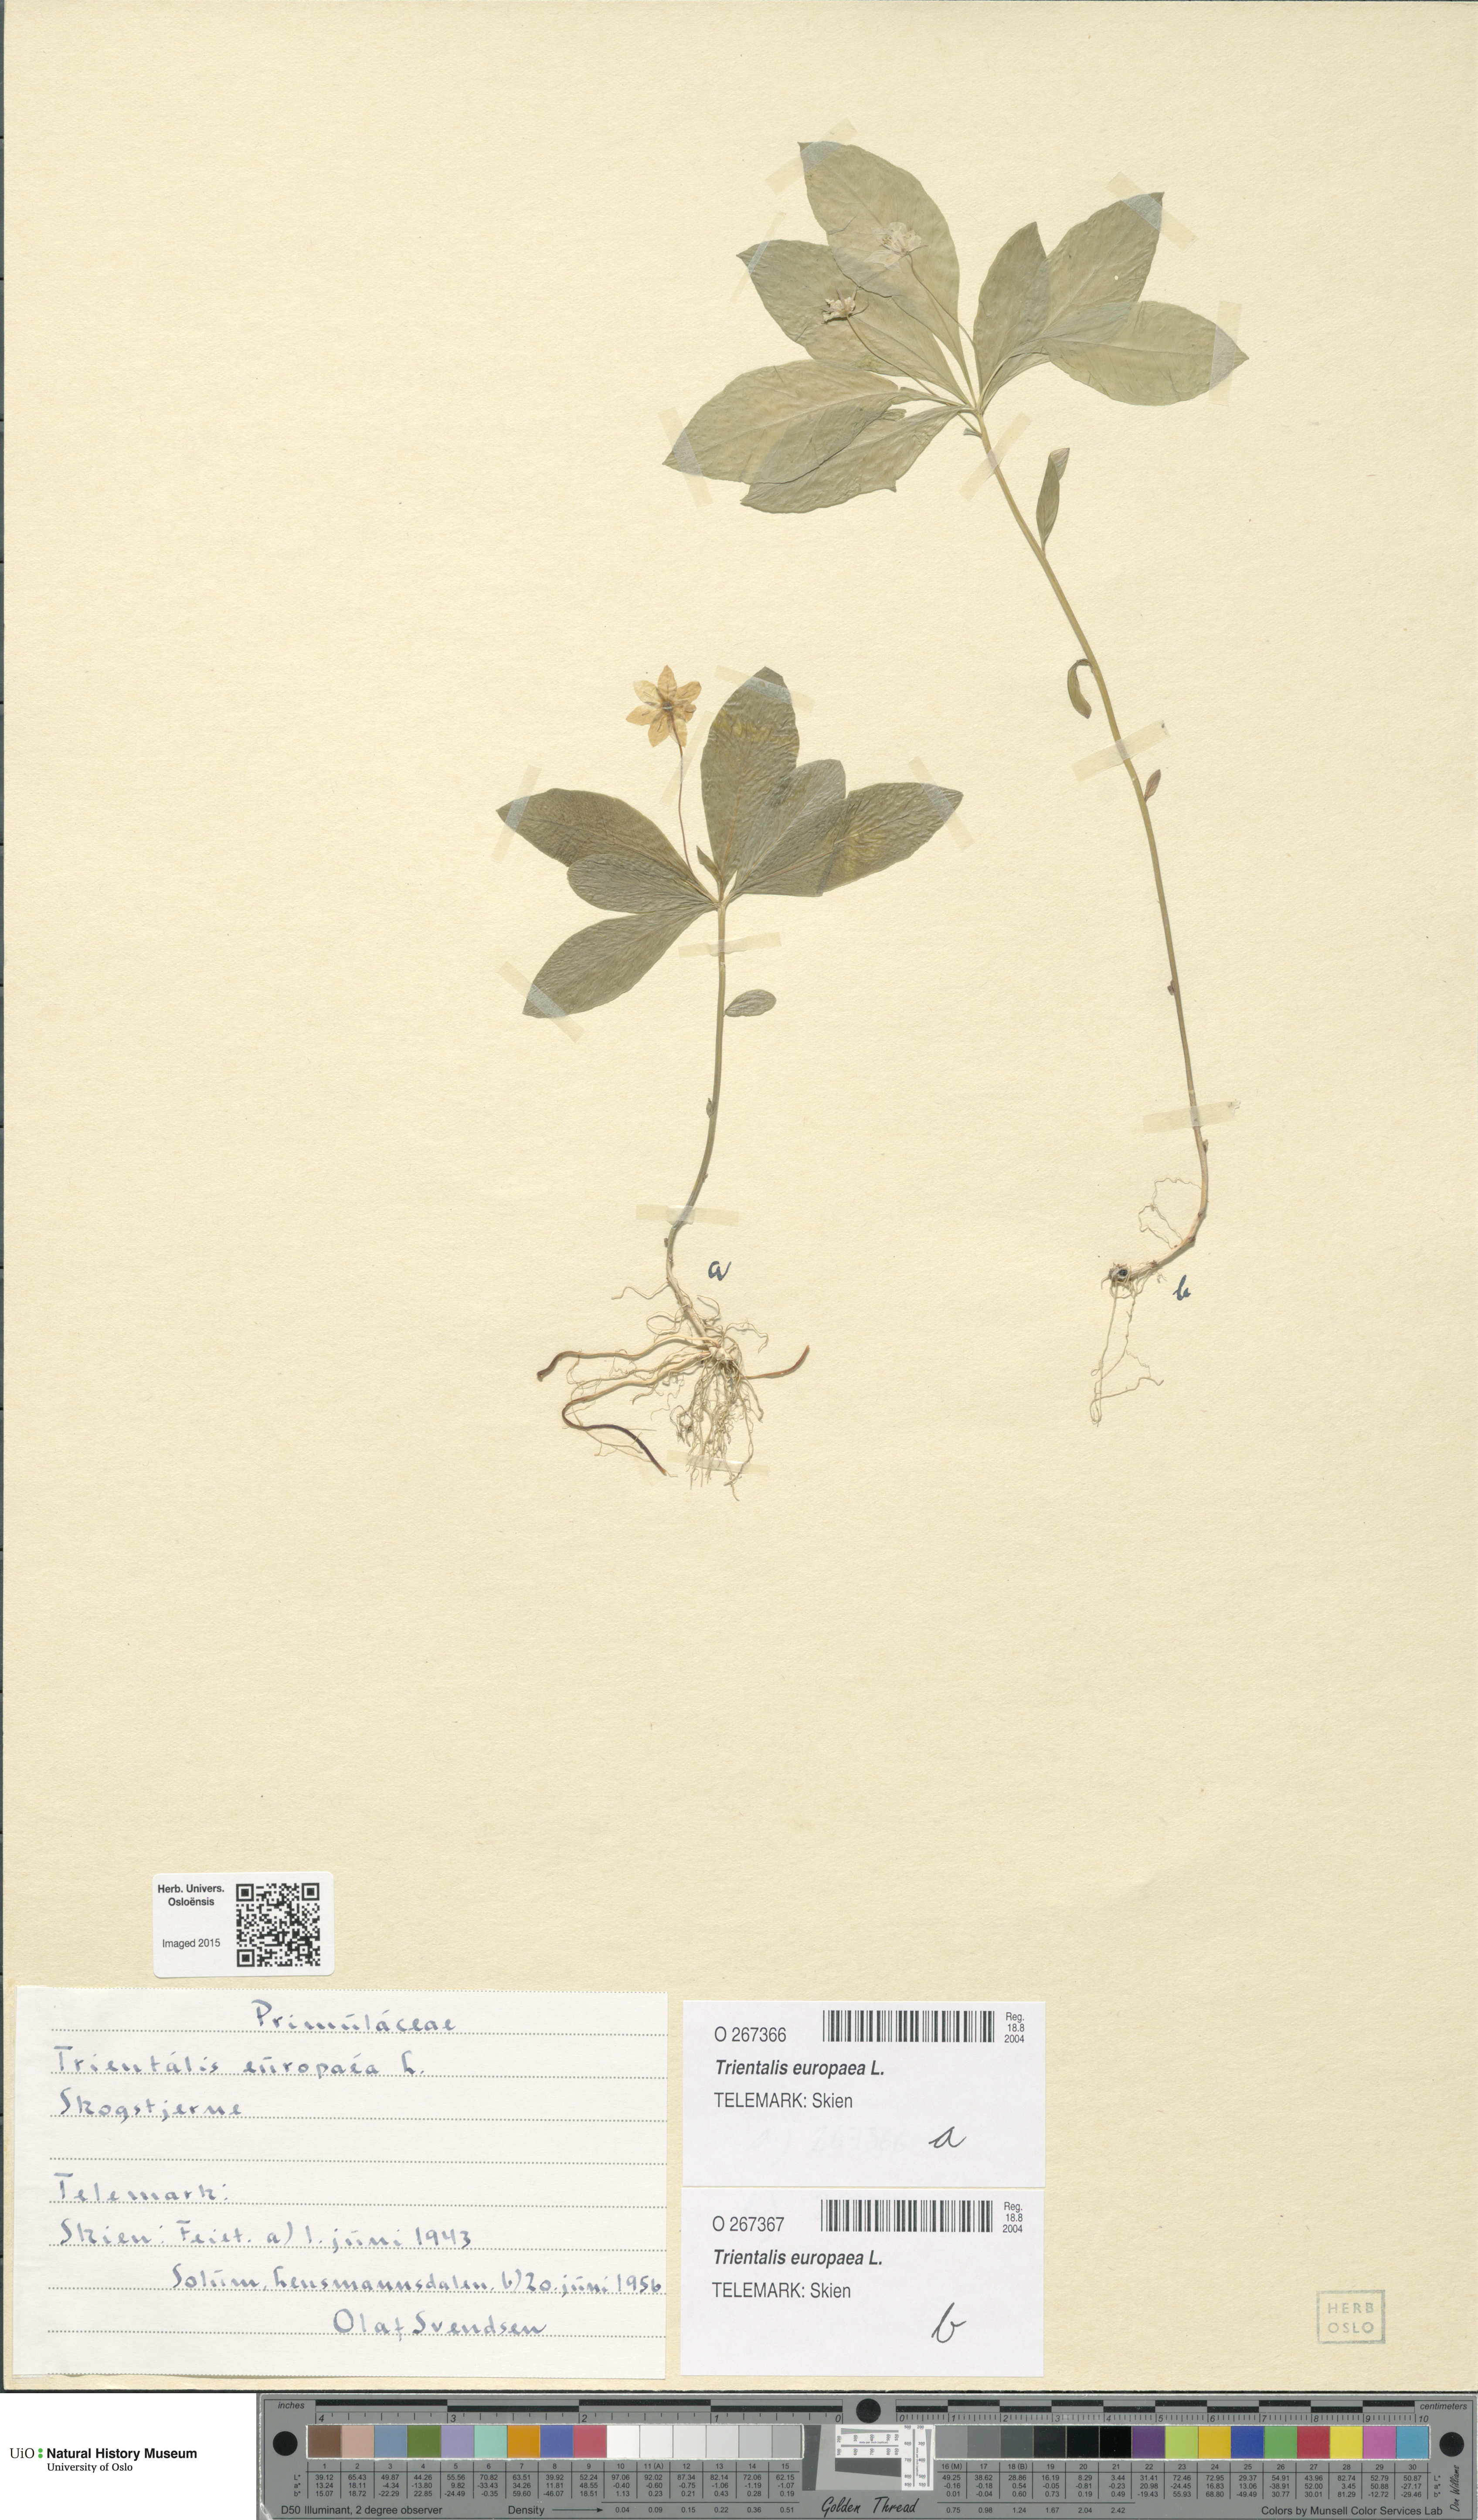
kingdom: Plantae
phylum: Tracheophyta
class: Magnoliopsida
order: Ericales
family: Primulaceae
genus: Lysimachia
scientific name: Lysimachia europaea
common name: Arctic starflower
